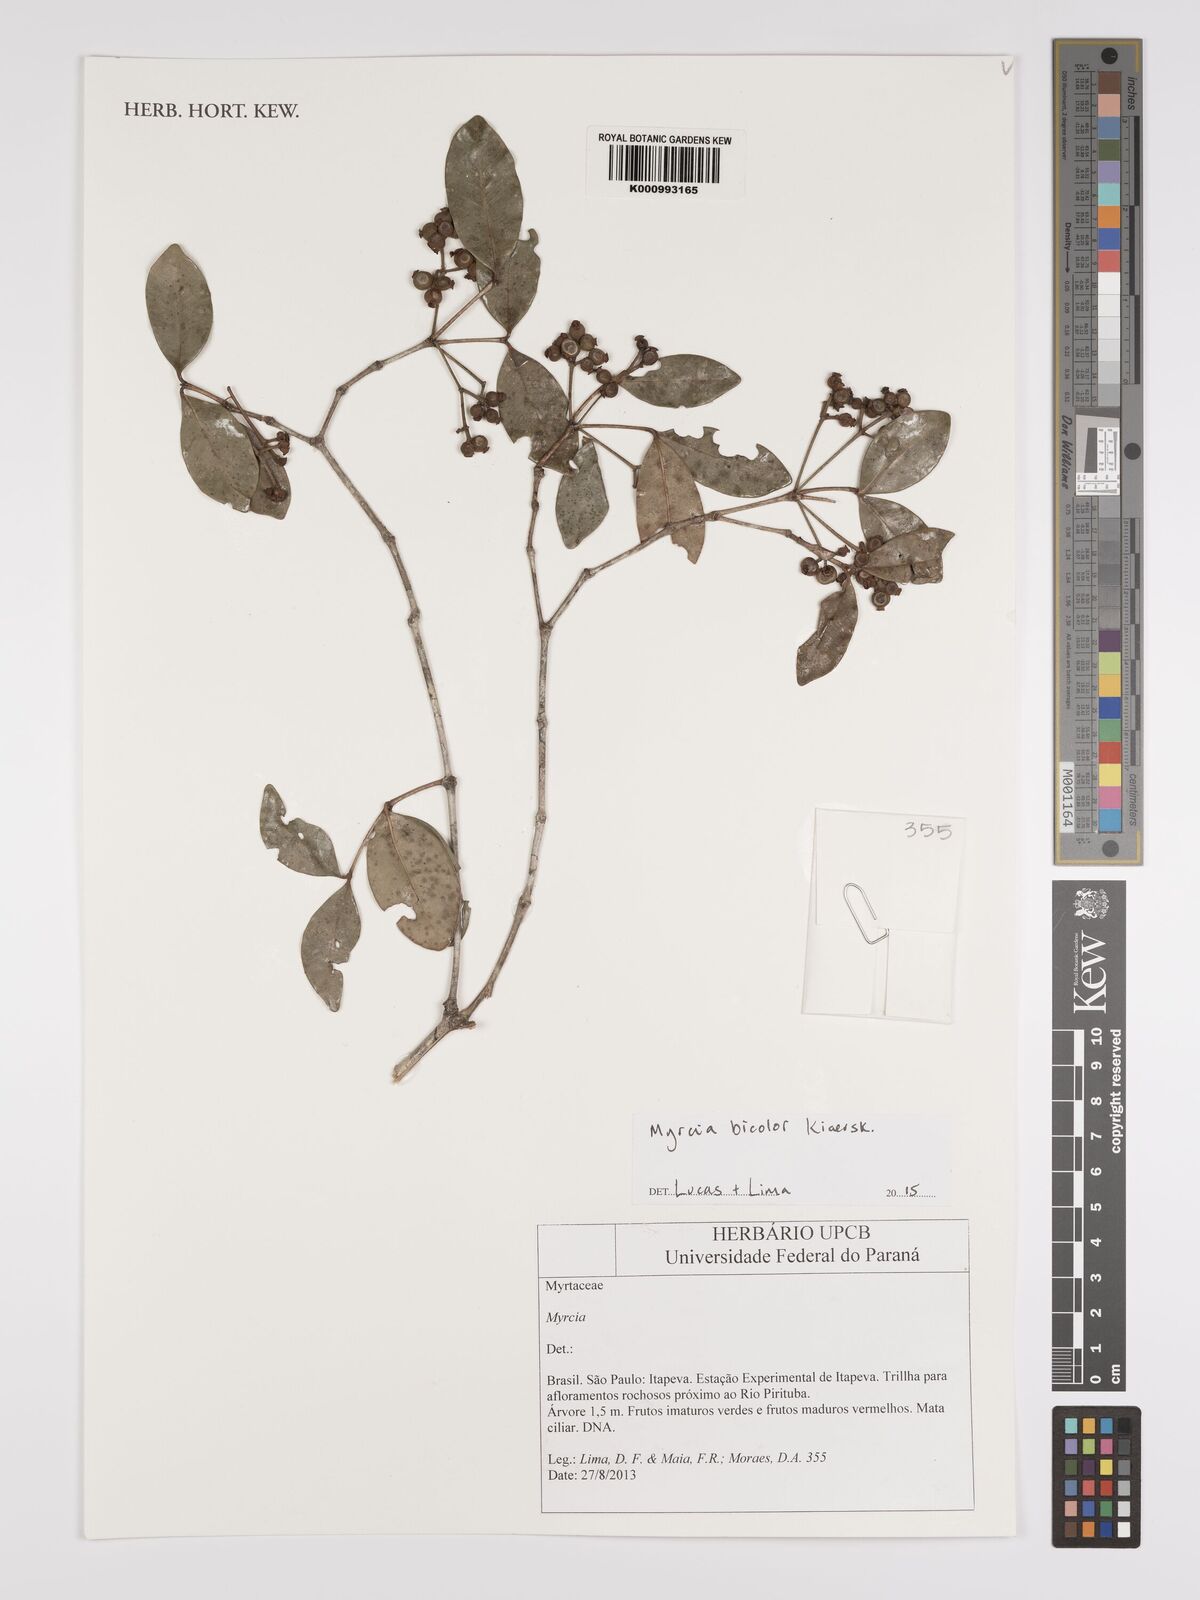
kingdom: Plantae
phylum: Tracheophyta
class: Magnoliopsida
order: Myrtales
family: Myrtaceae
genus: Myrcia
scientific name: Myrcia bicolor
